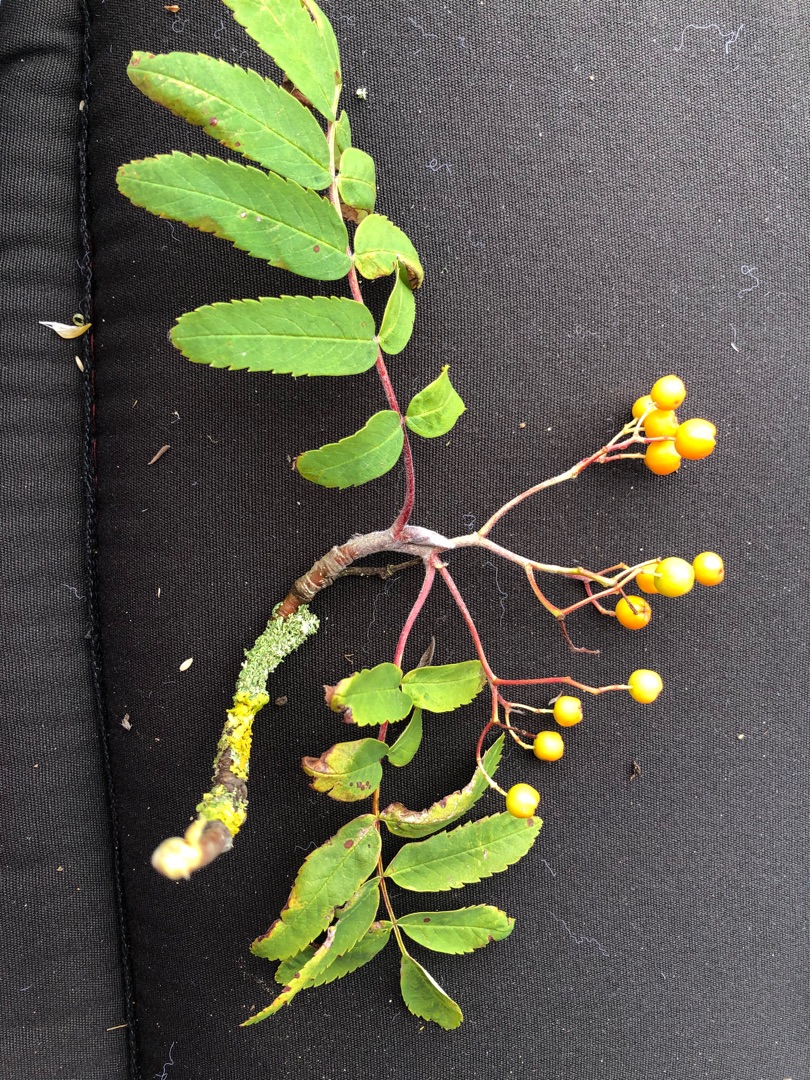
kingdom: Plantae
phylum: Tracheophyta
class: Magnoliopsida
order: Rosales
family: Rosaceae
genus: Sorbus
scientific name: Sorbus aucuparia
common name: Almindelig røn
